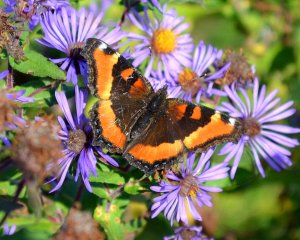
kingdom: Animalia
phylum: Arthropoda
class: Insecta
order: Lepidoptera
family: Nymphalidae
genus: Aglais
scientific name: Aglais milberti
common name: Milbert's Tortoiseshell
